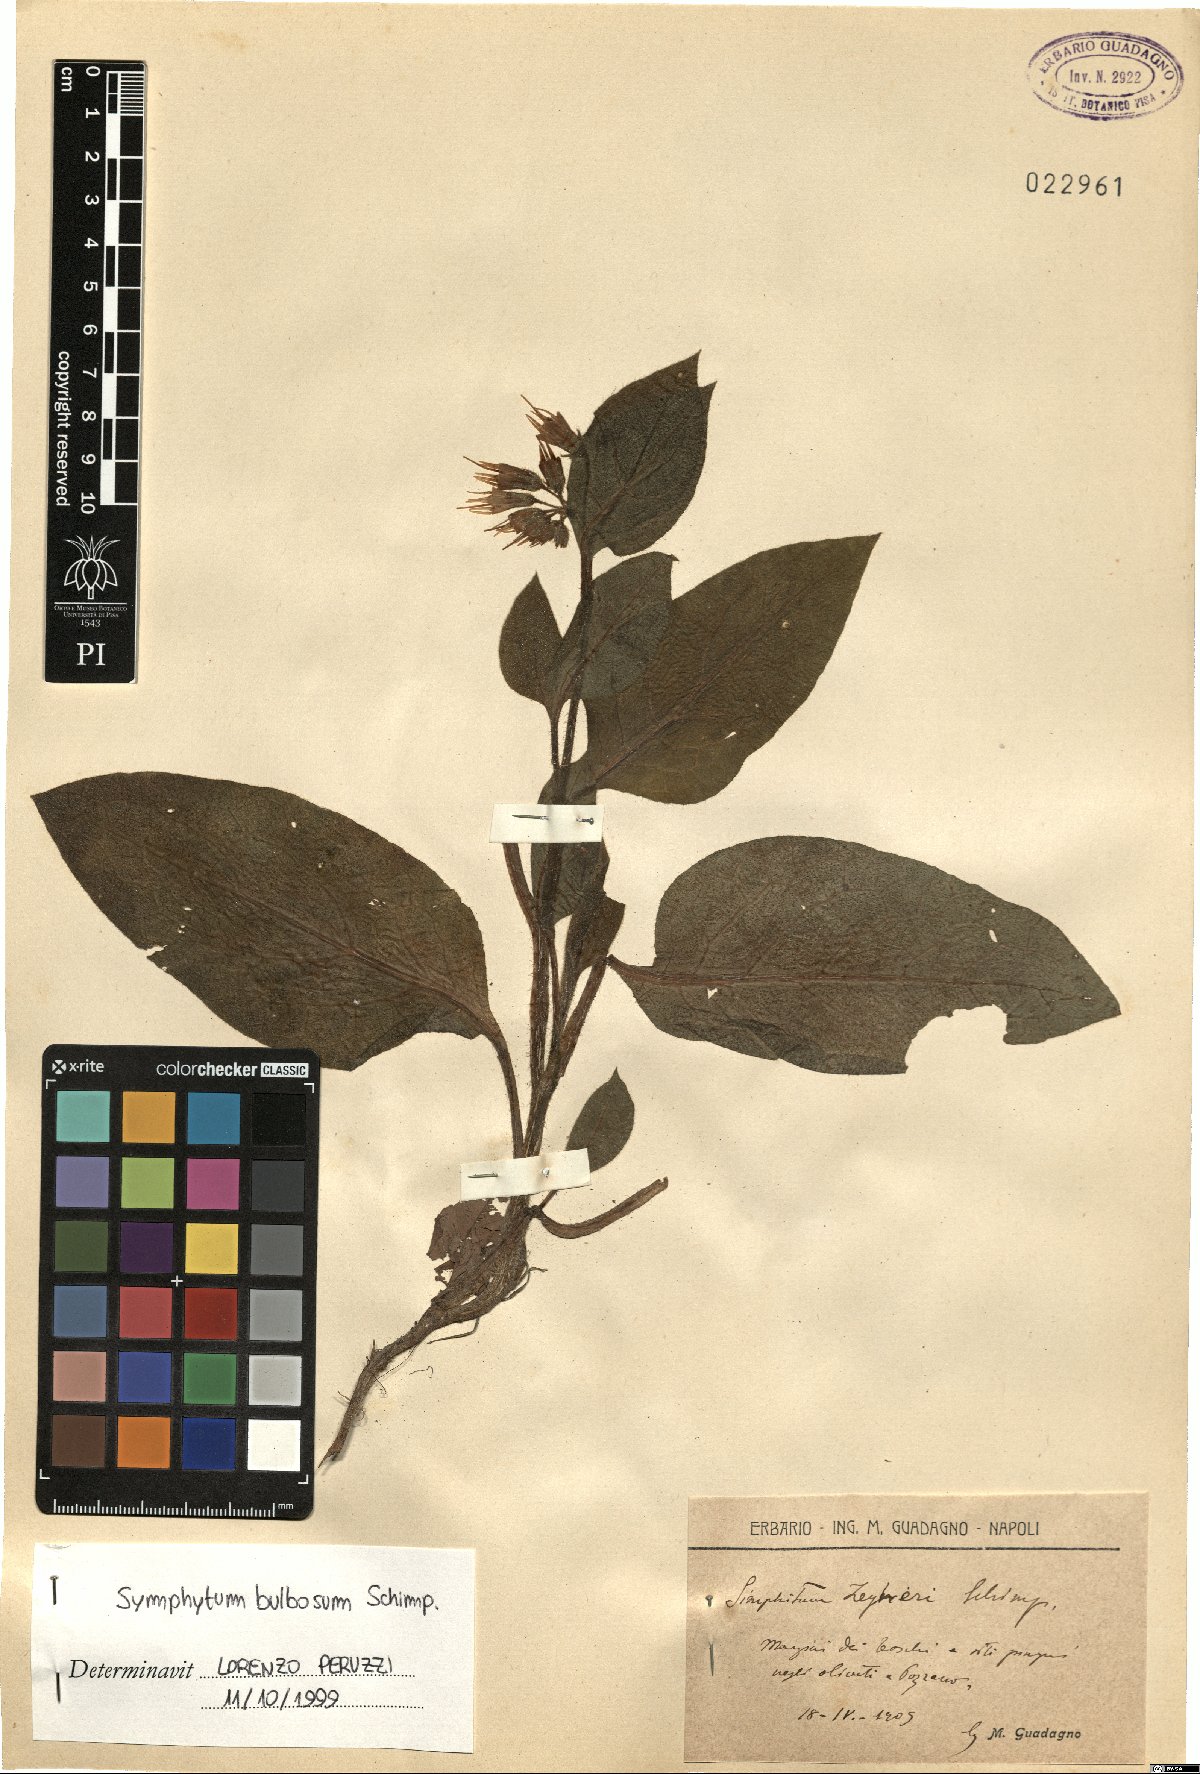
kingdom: Plantae
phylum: Tracheophyta
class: Magnoliopsida
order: Boraginales
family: Boraginaceae
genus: Symphytum
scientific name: Symphytum bulbosum
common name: Bulbous comfrey
